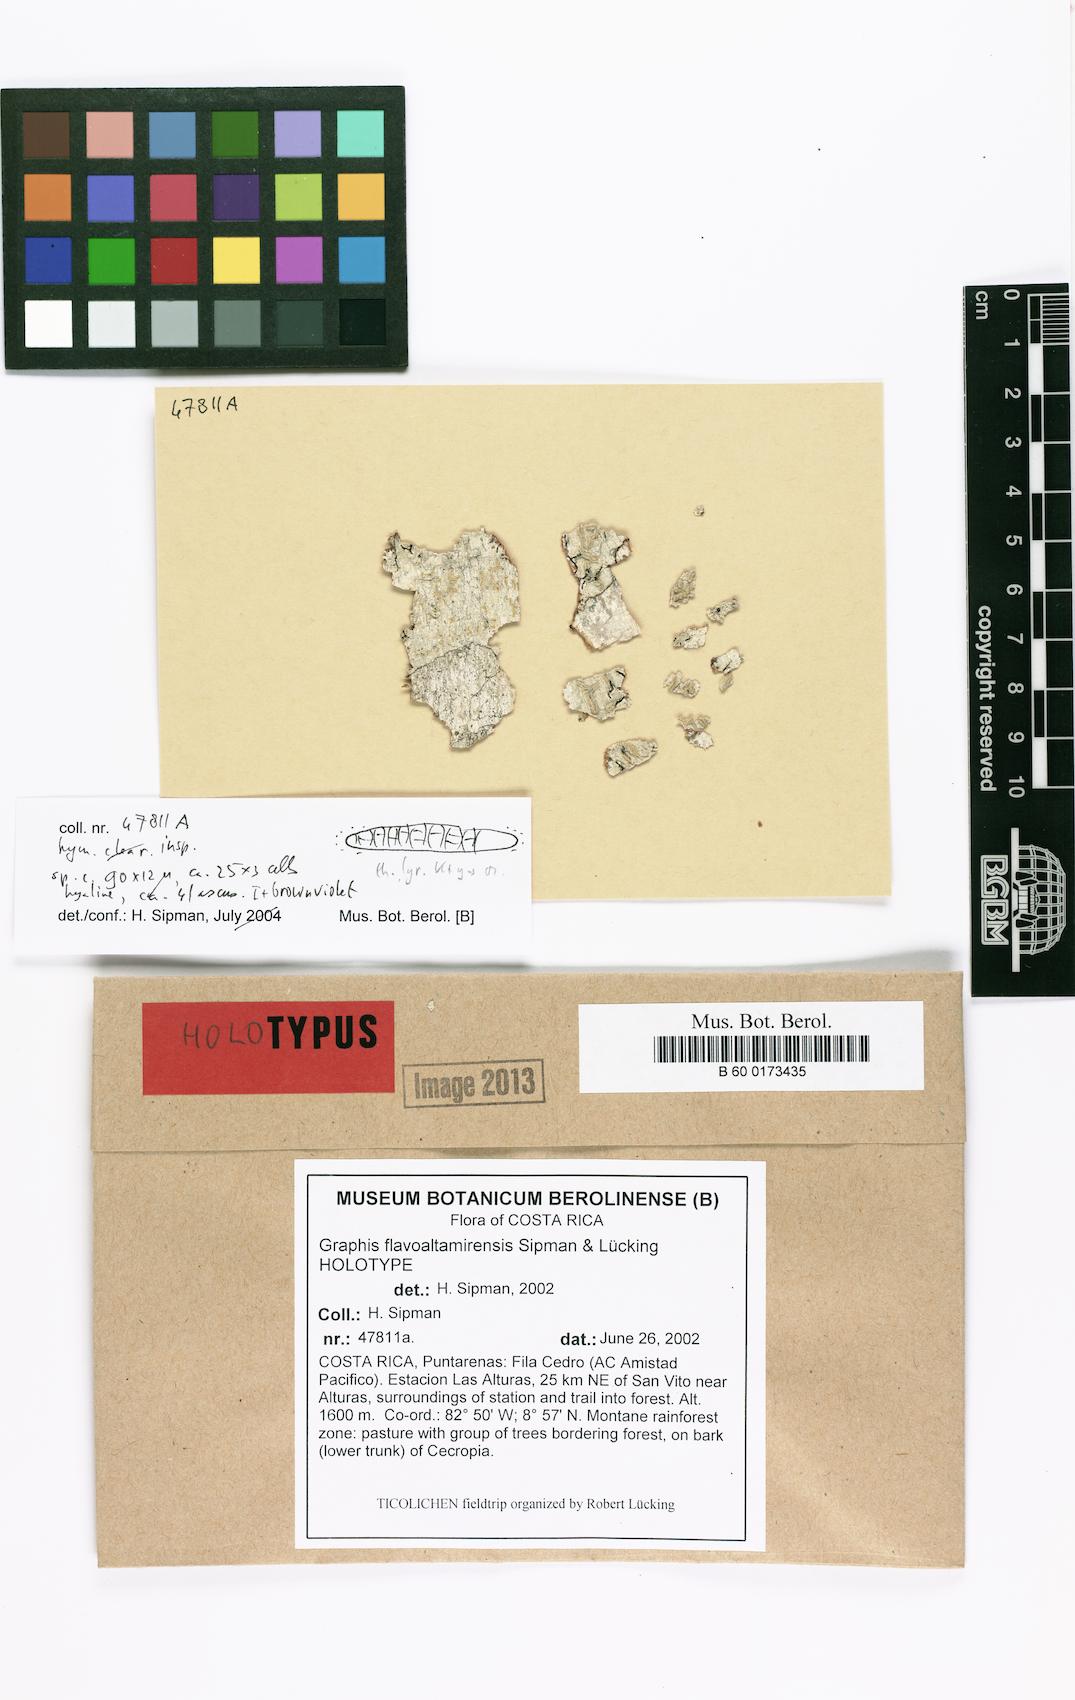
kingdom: Fungi
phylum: Ascomycota
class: Lecanoromycetes
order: Ostropales
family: Graphidaceae
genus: Allographa
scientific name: Allographa flavoaltamirensis
